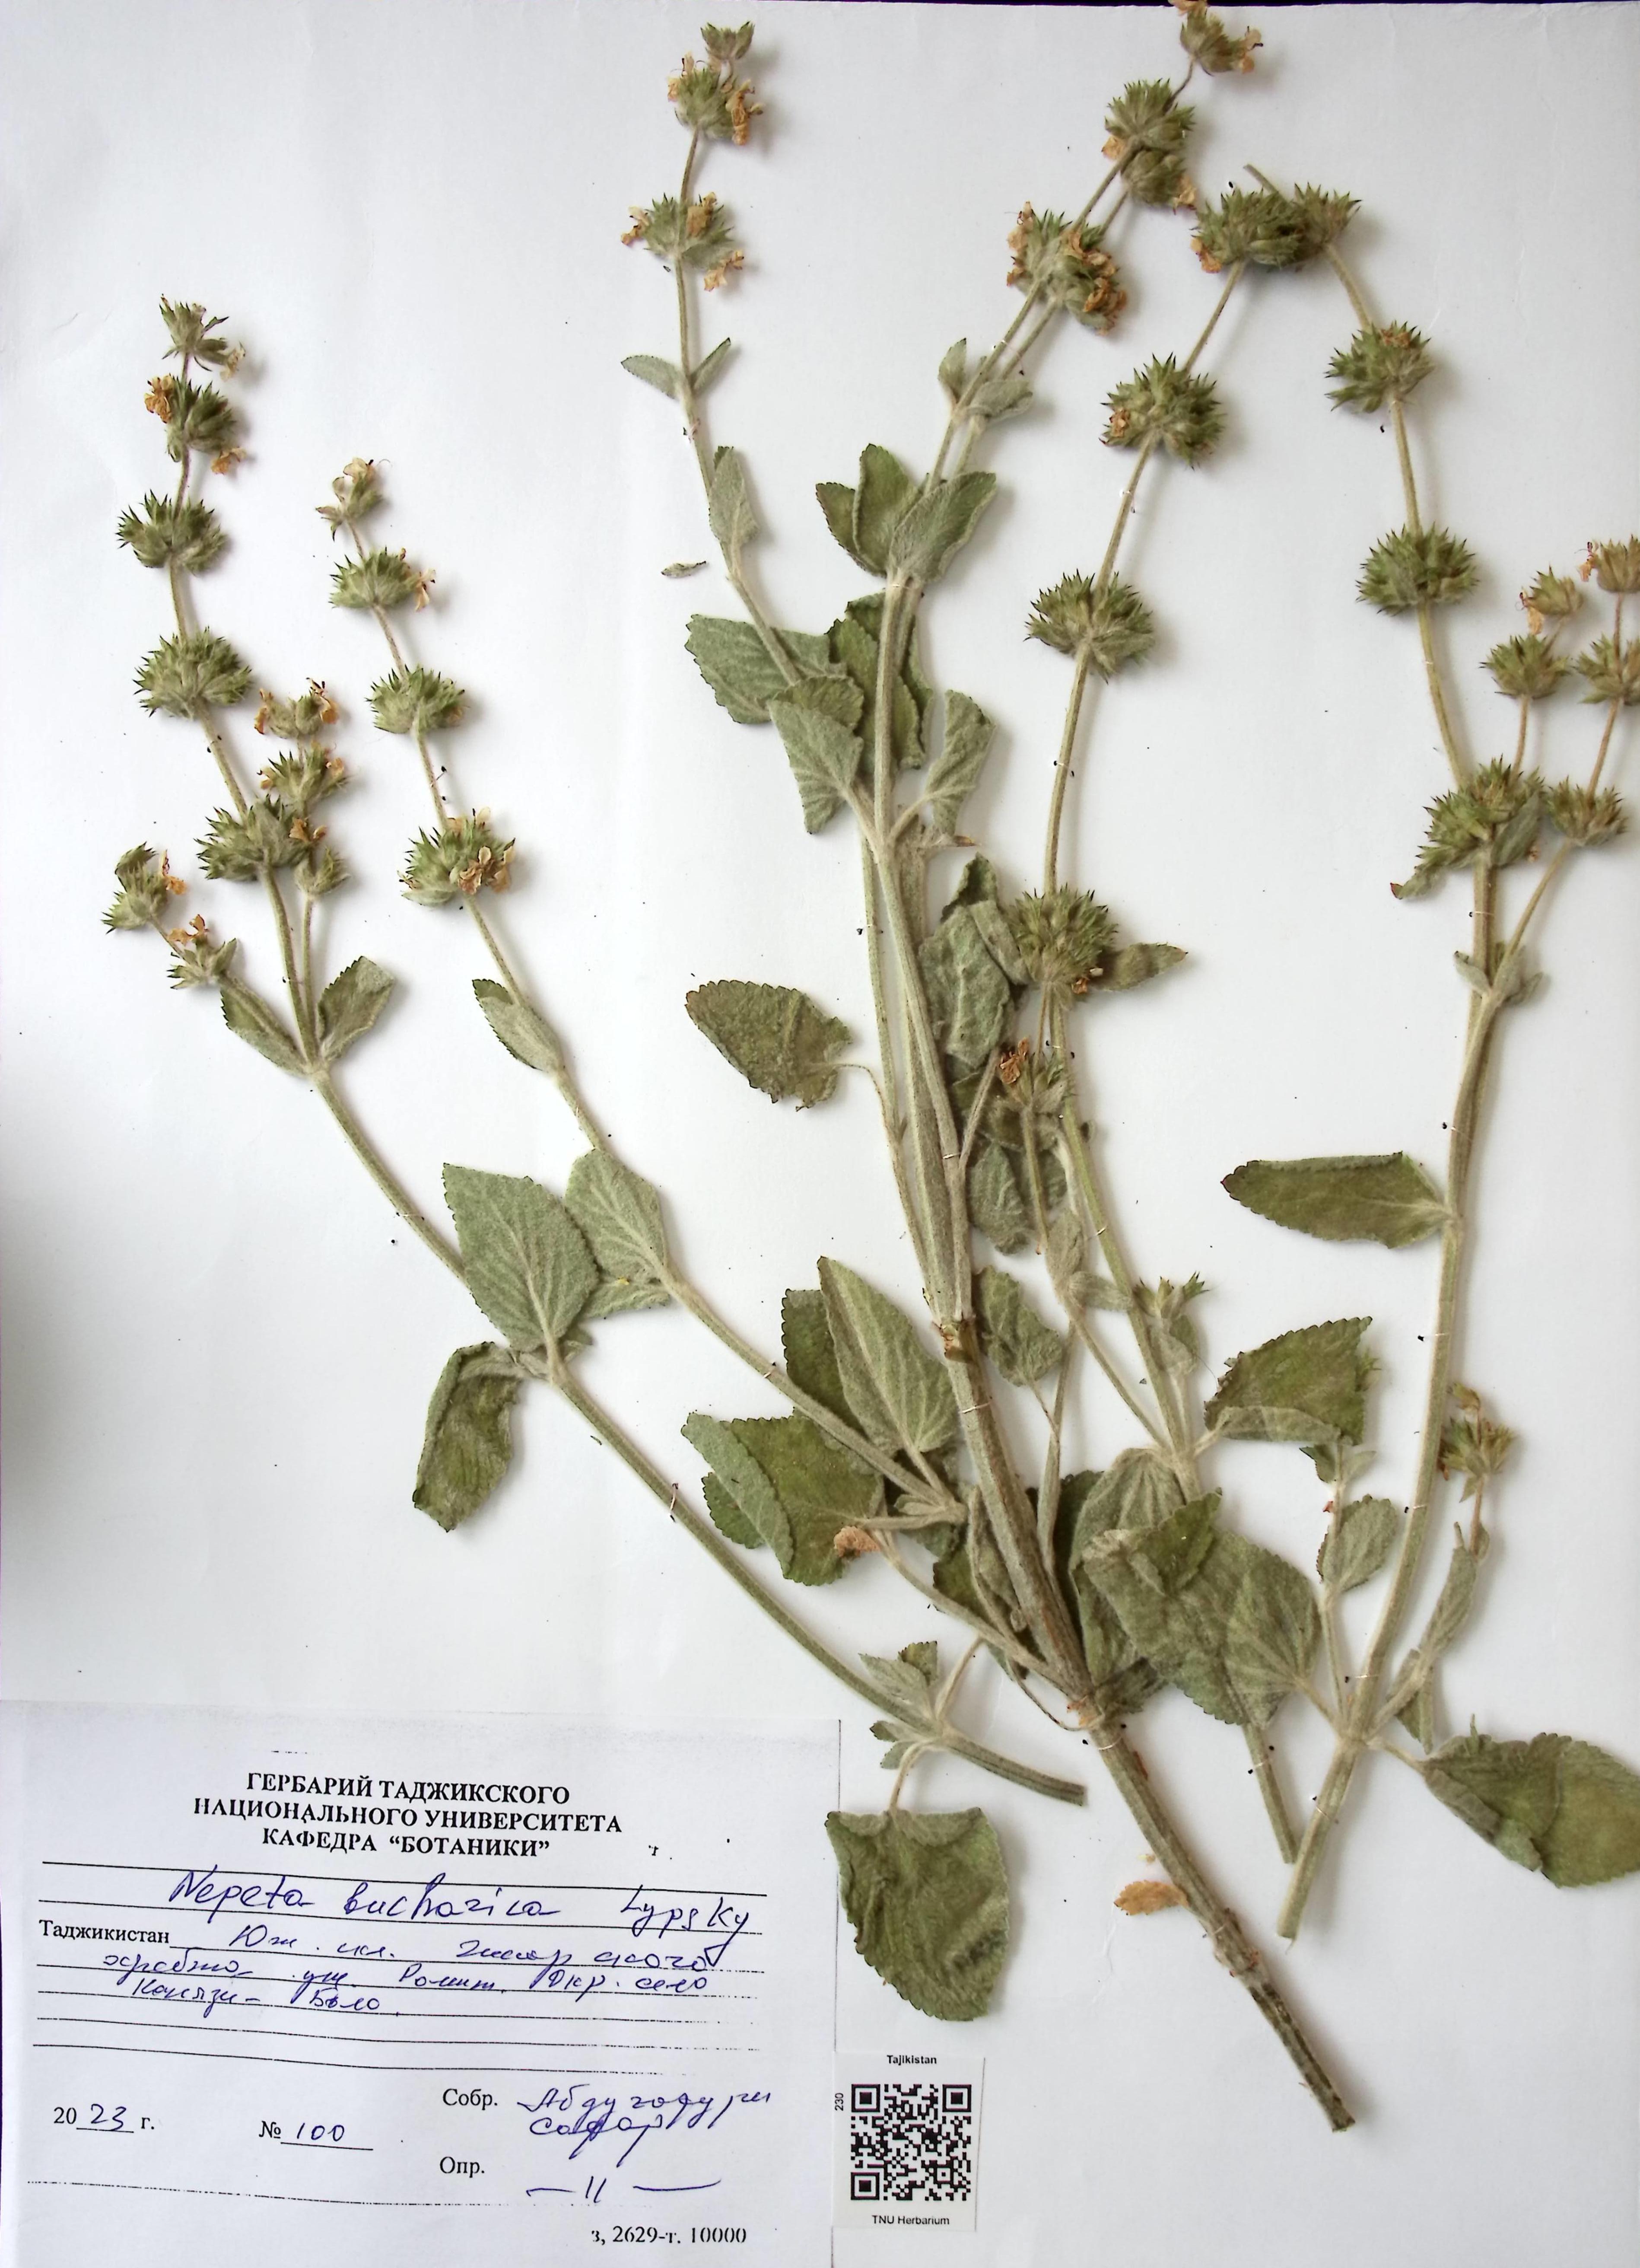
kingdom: Plantae
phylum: Tracheophyta
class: Magnoliopsida
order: Lamiales
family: Lamiaceae
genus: Nepeta
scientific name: Nepeta bucharica
